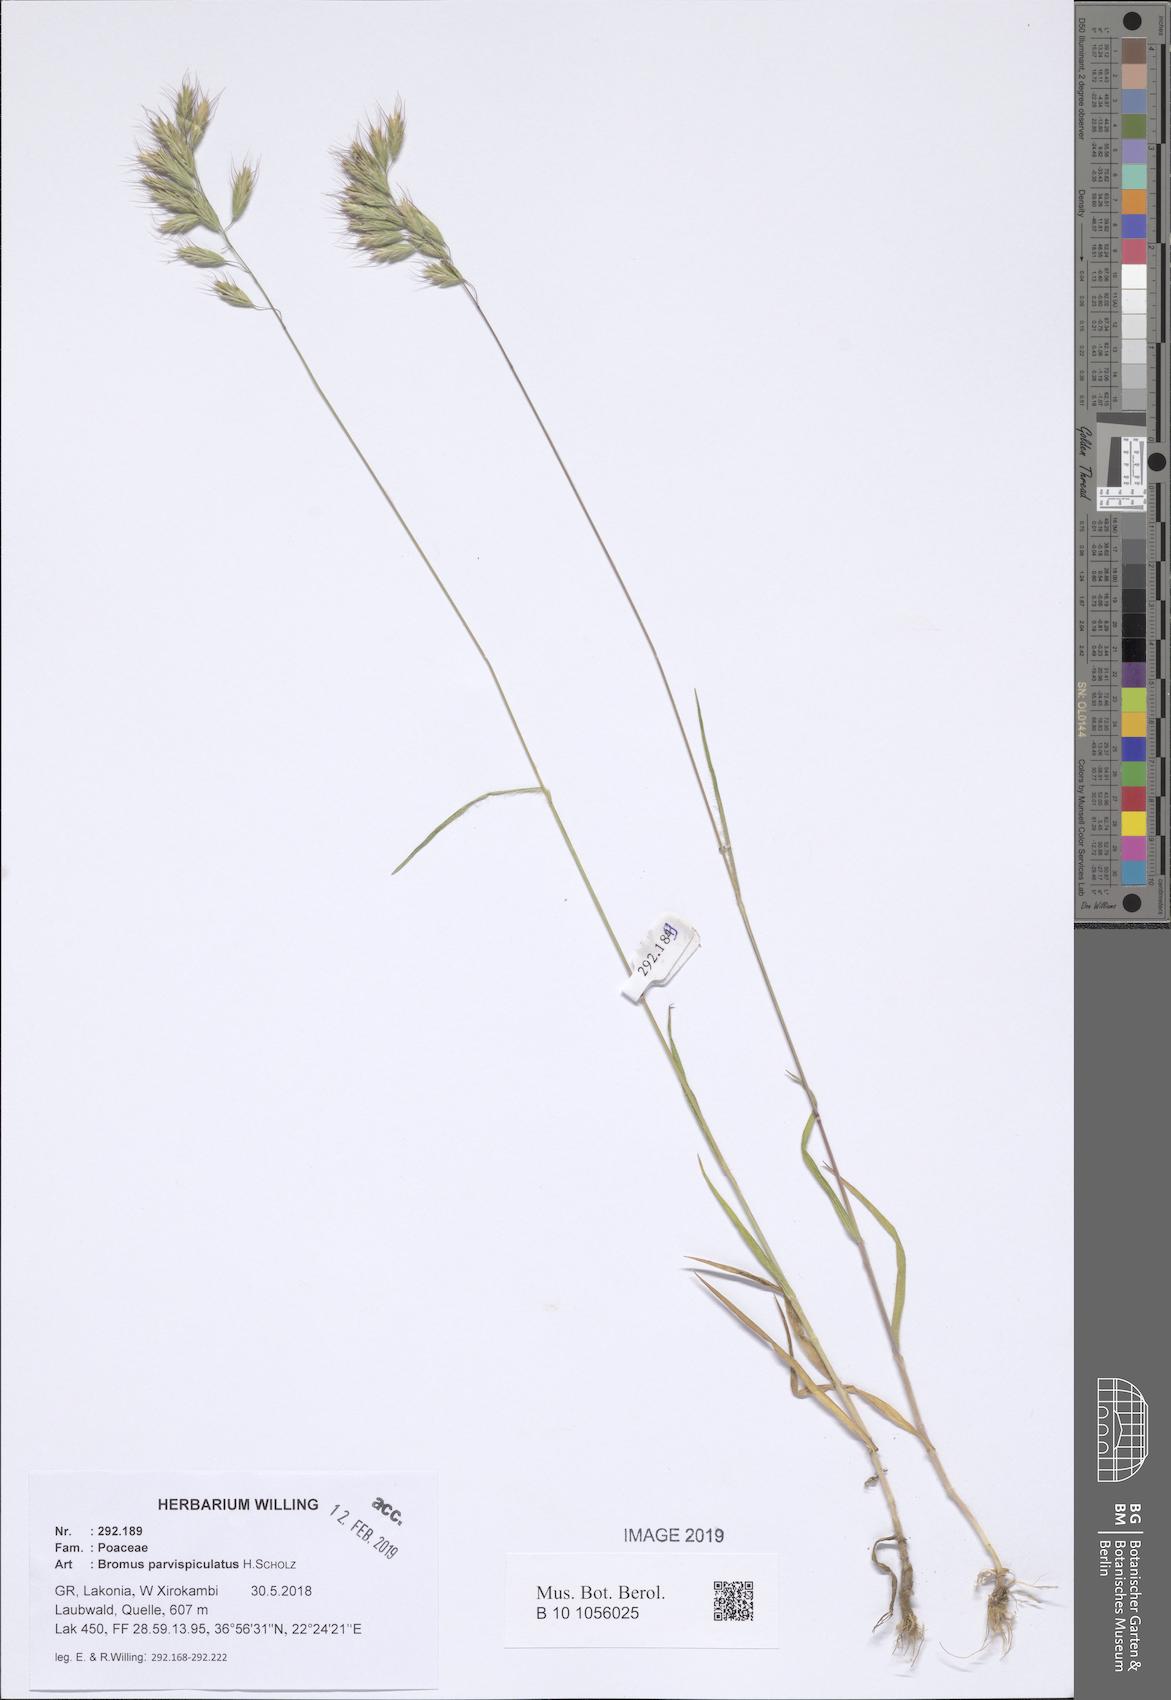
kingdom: Plantae
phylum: Tracheophyta
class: Liliopsida
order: Poales
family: Poaceae
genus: Bromus
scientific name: Bromus hordeaceus
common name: Soft brome
